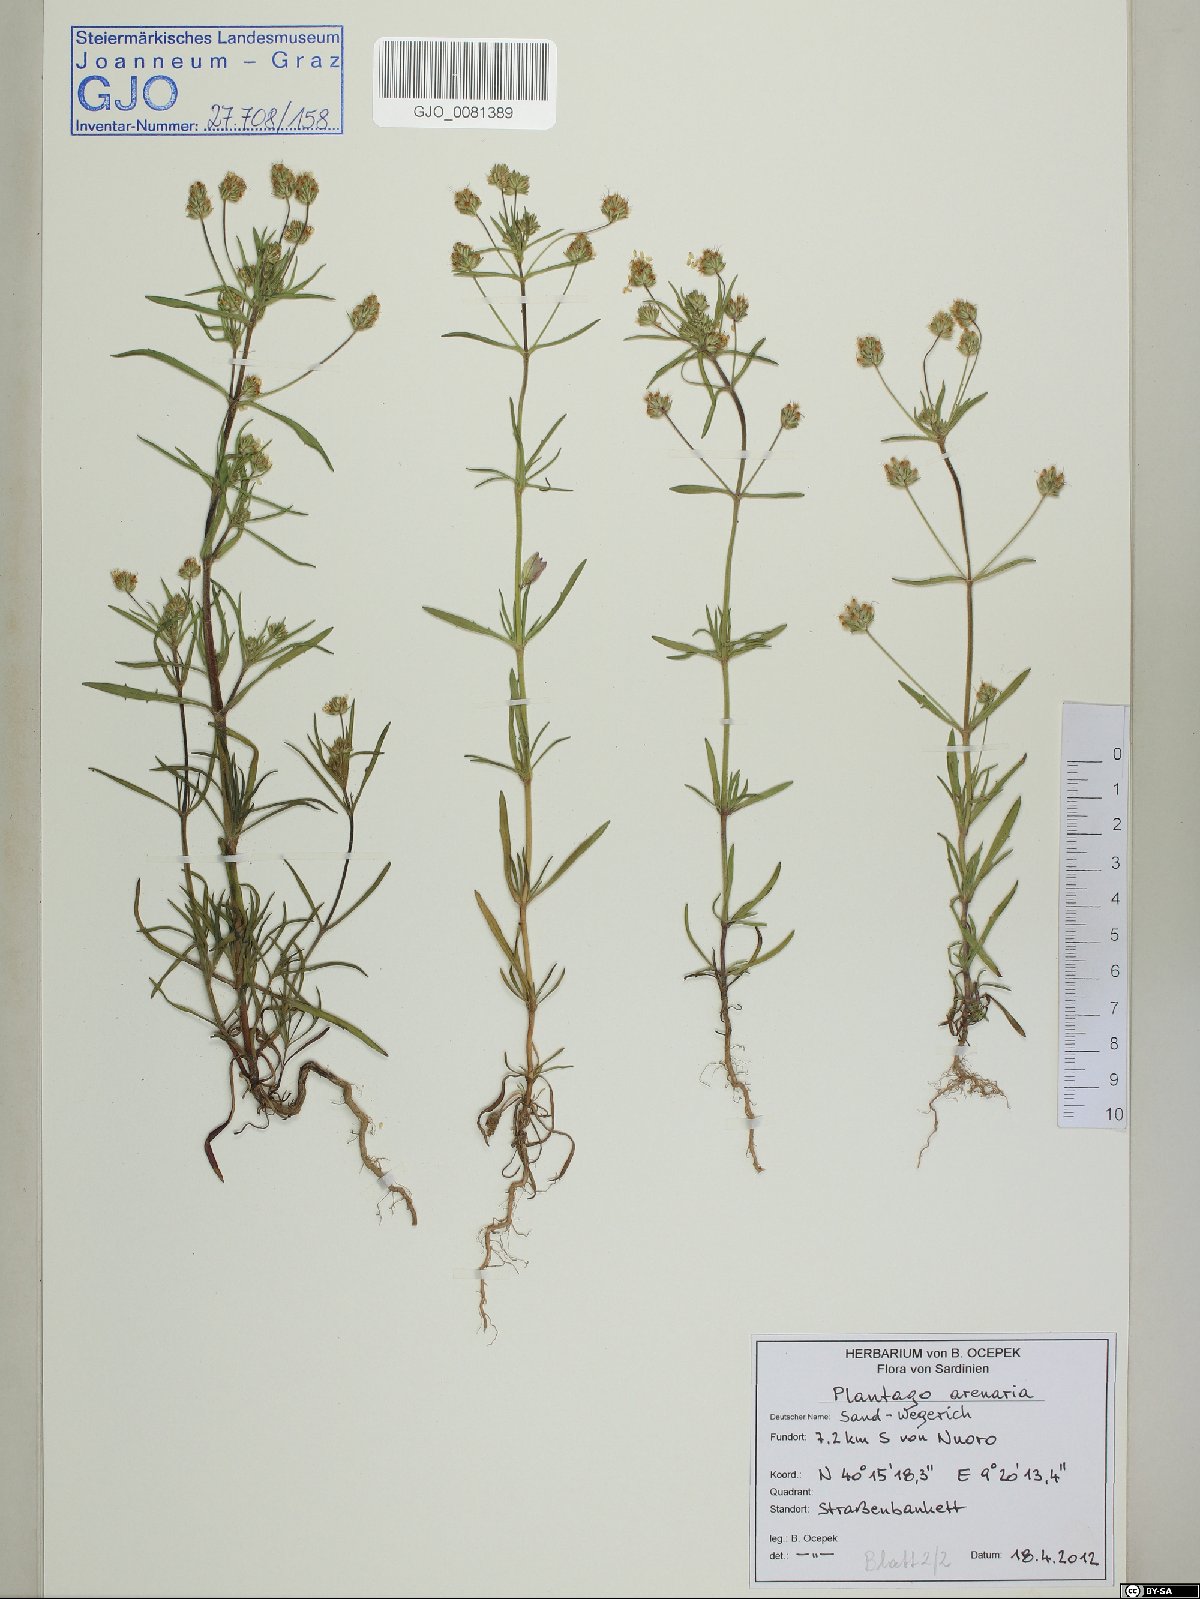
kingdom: Plantae
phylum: Tracheophyta
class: Magnoliopsida
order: Lamiales
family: Plantaginaceae
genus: Plantago
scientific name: Plantago arenaria
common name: Branched plantain
